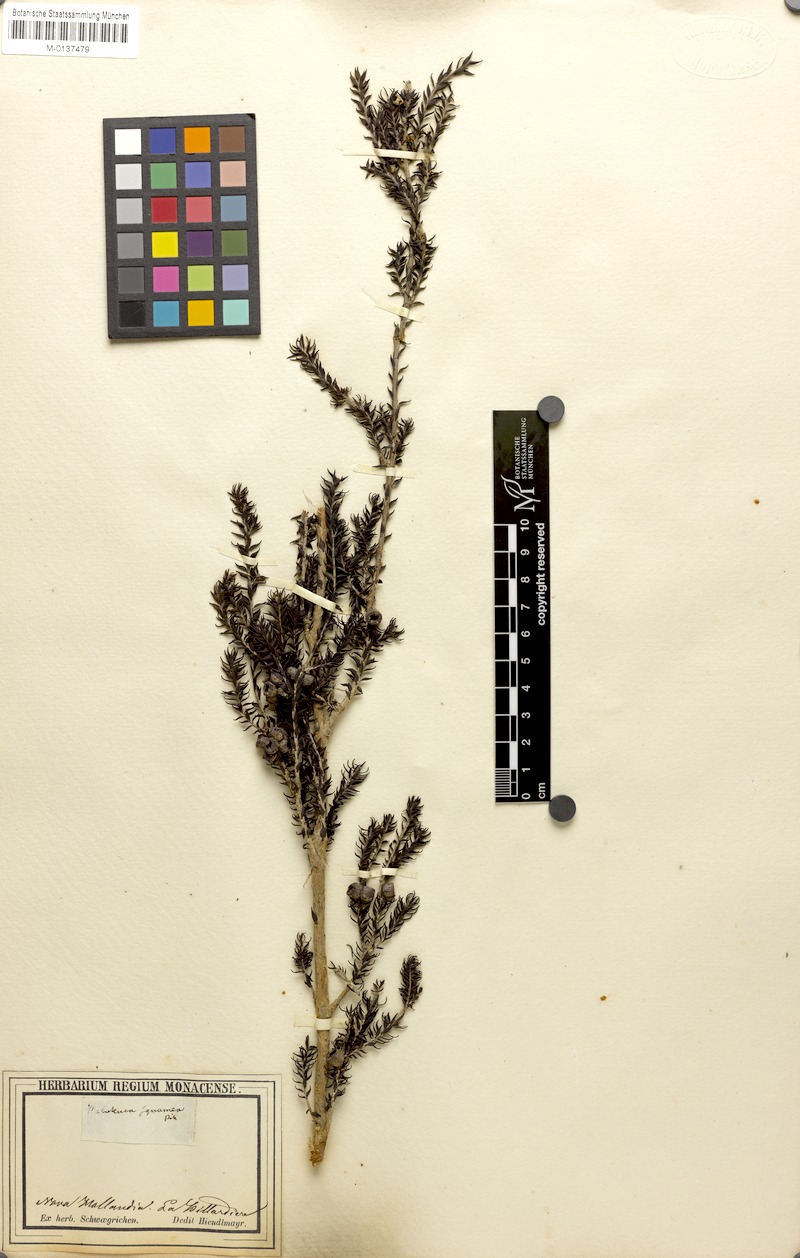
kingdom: Plantae
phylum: Tracheophyta
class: Magnoliopsida
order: Myrtales
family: Myrtaceae
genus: Melaleuca
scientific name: Melaleuca squamea
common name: Swamp melaleuca
